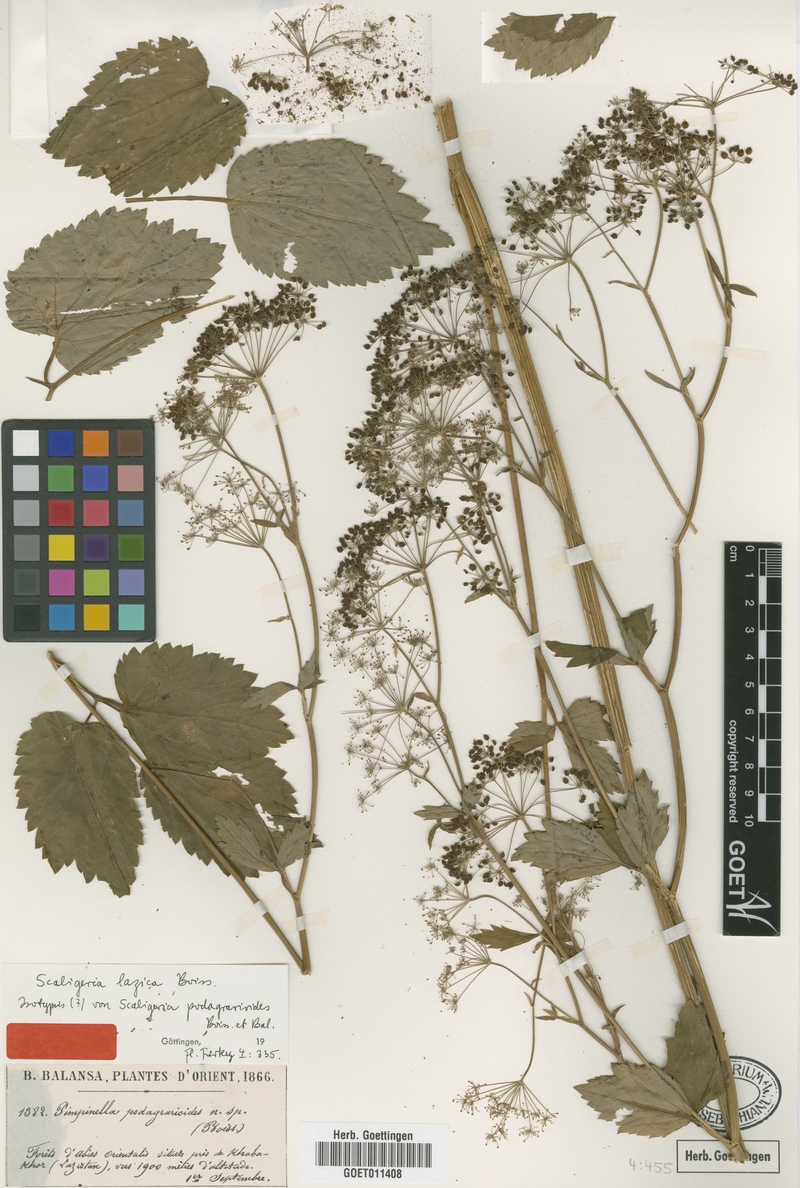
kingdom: Plantae
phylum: Tracheophyta
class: Magnoliopsida
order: Apiales
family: Apiaceae
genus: Scaligeria
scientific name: Scaligeria lazica
